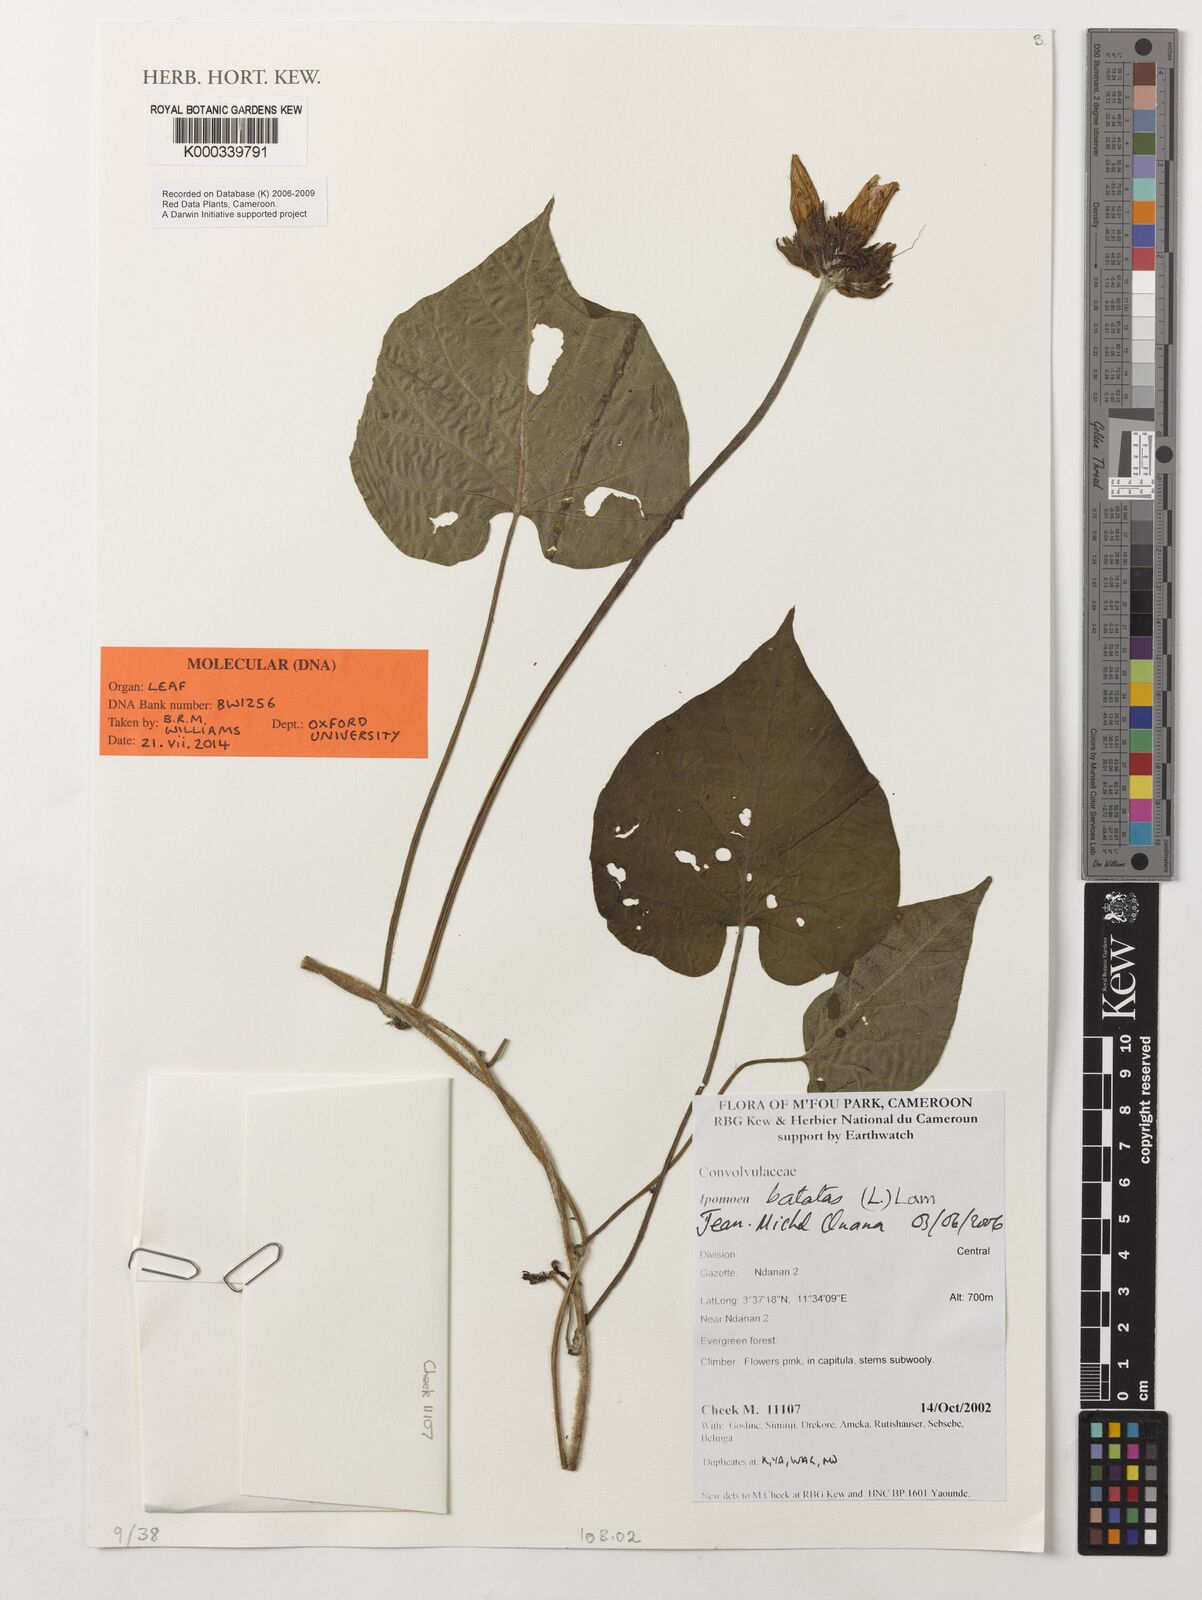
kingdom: Plantae
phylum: Tracheophyta
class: Magnoliopsida
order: Solanales
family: Convolvulaceae
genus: Ipomoea
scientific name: Ipomoea batatas
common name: Sweet-potato
